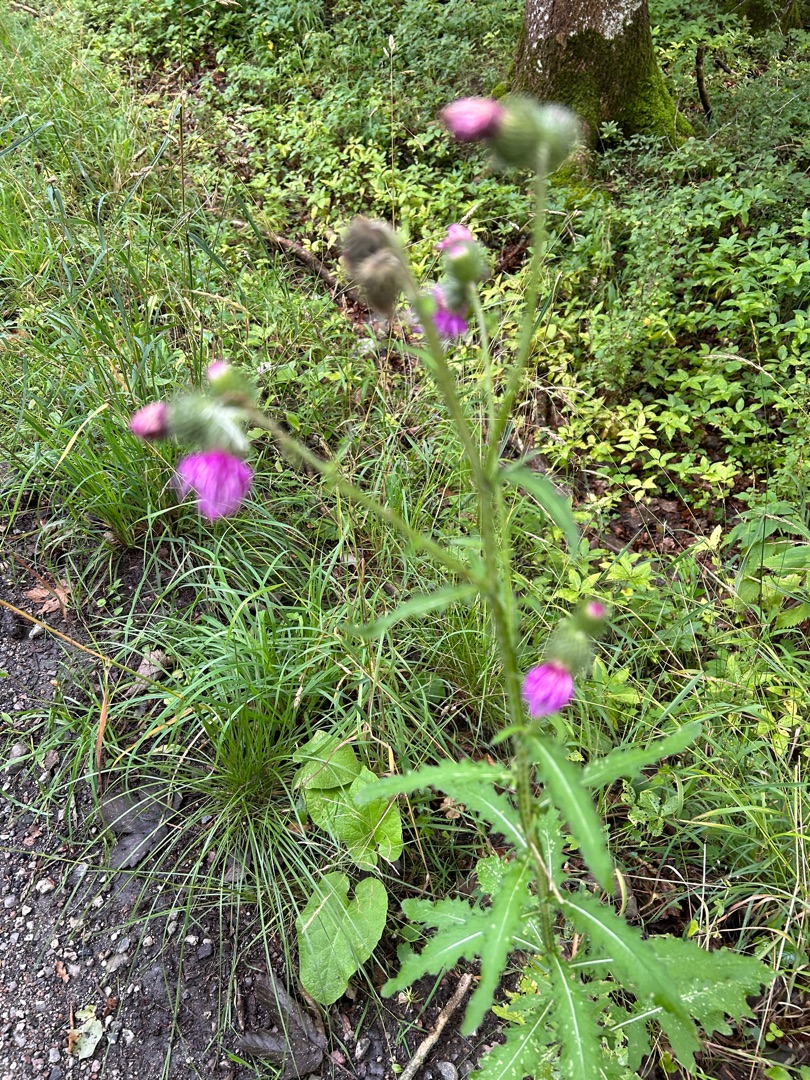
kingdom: Plantae
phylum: Tracheophyta
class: Magnoliopsida
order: Asterales
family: Asteraceae
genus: Carduus
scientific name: Carduus crispus
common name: Kruset tidsel
